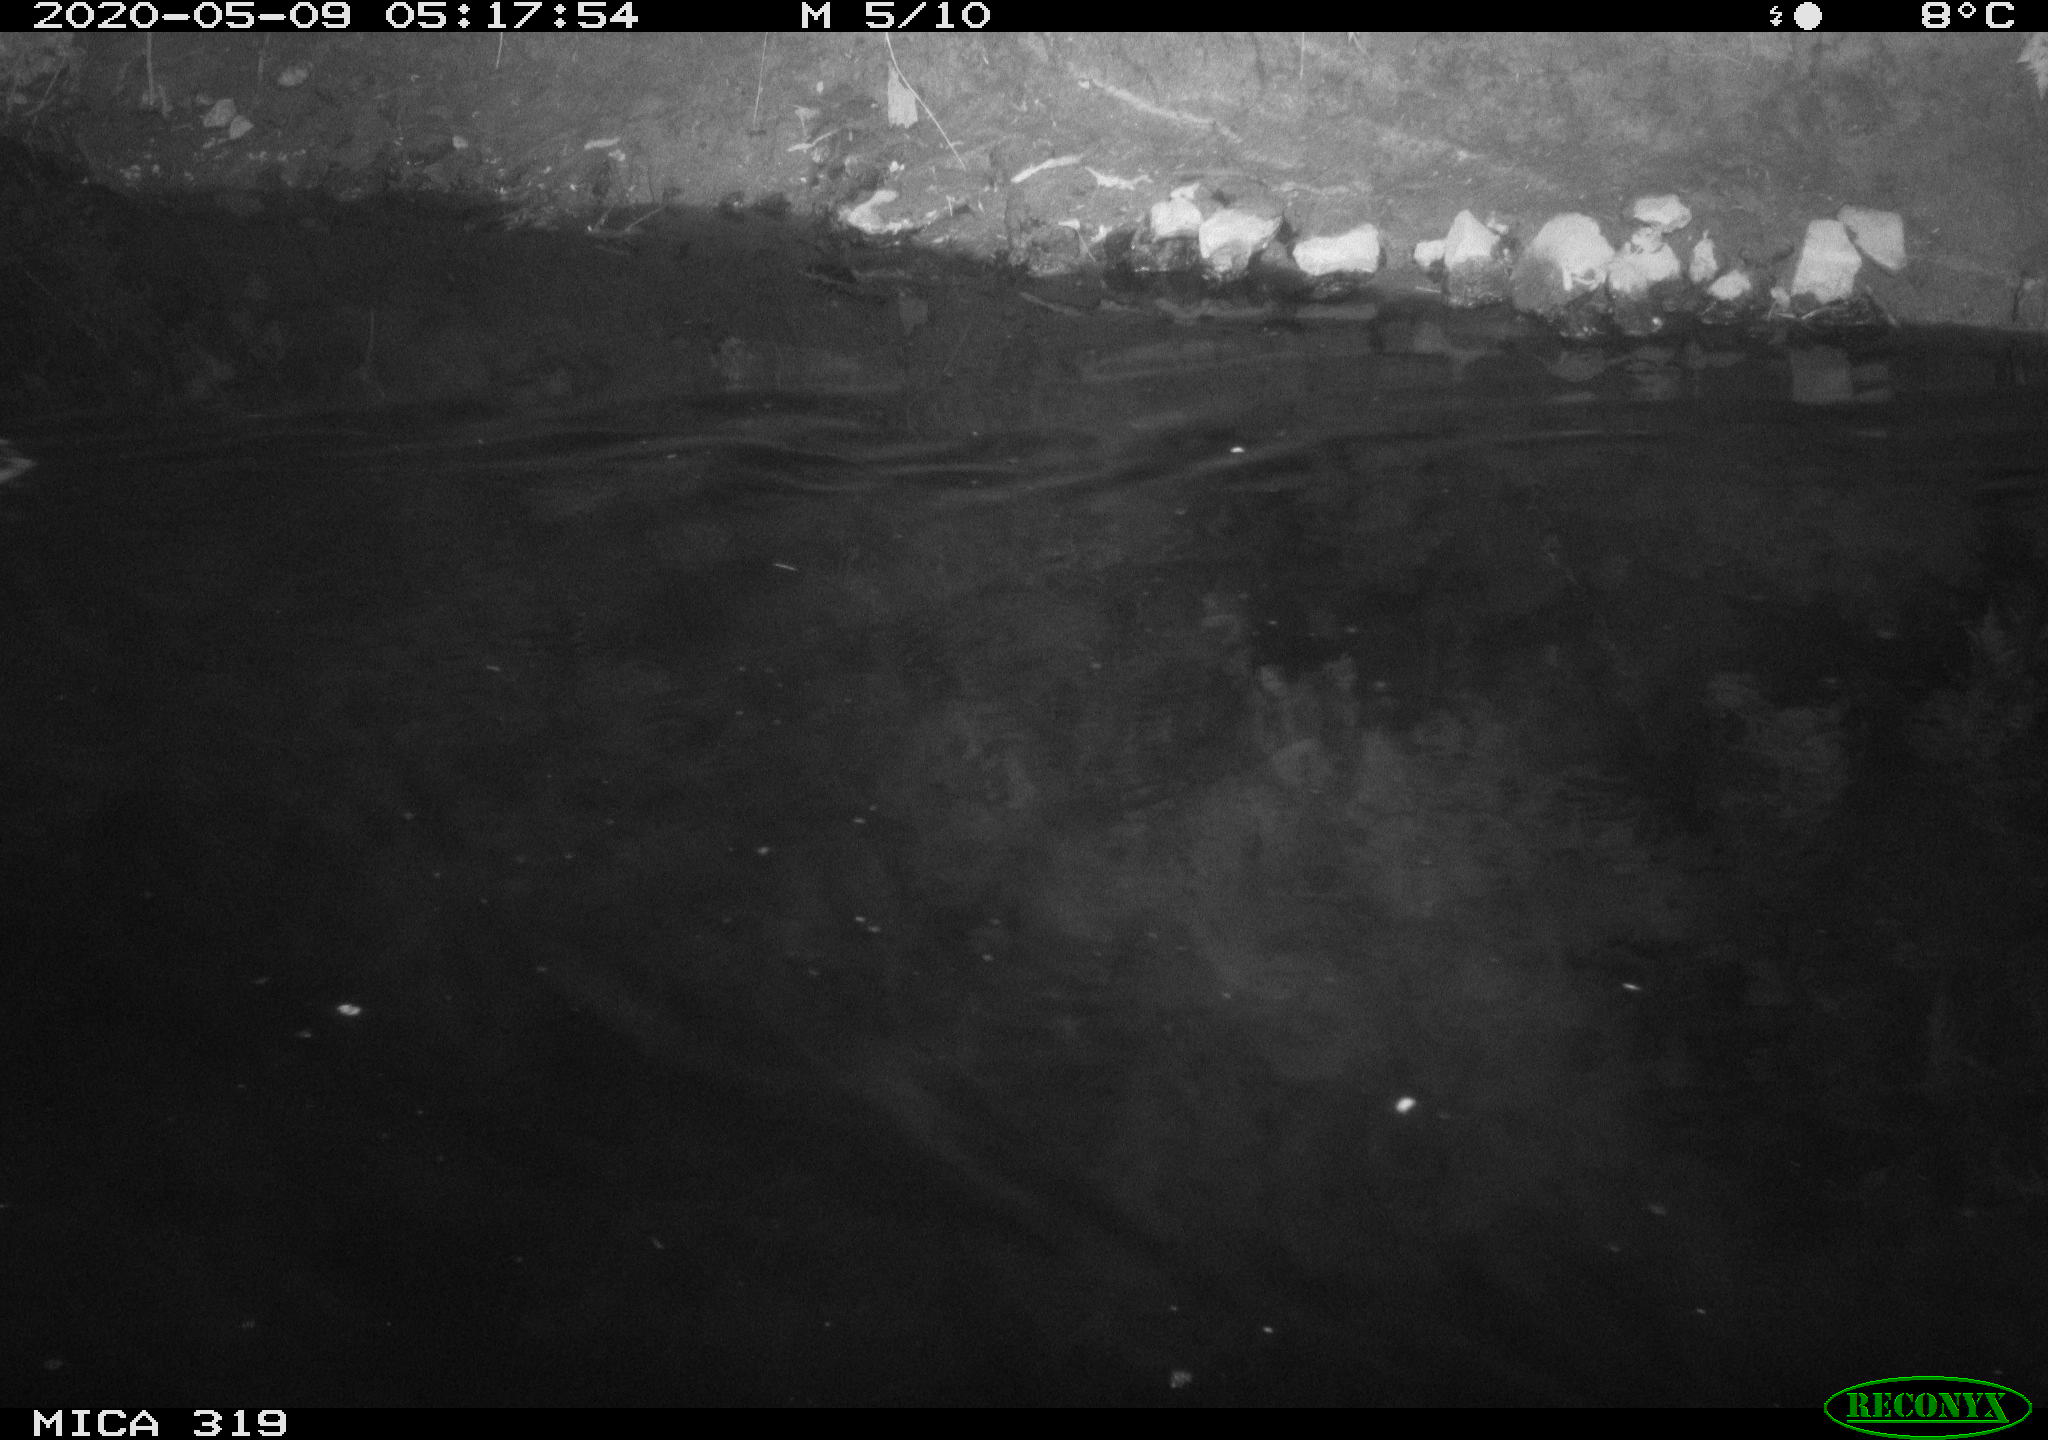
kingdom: Animalia
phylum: Chordata
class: Aves
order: Anseriformes
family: Anatidae
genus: Anas
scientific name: Anas platyrhynchos
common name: Mallard
